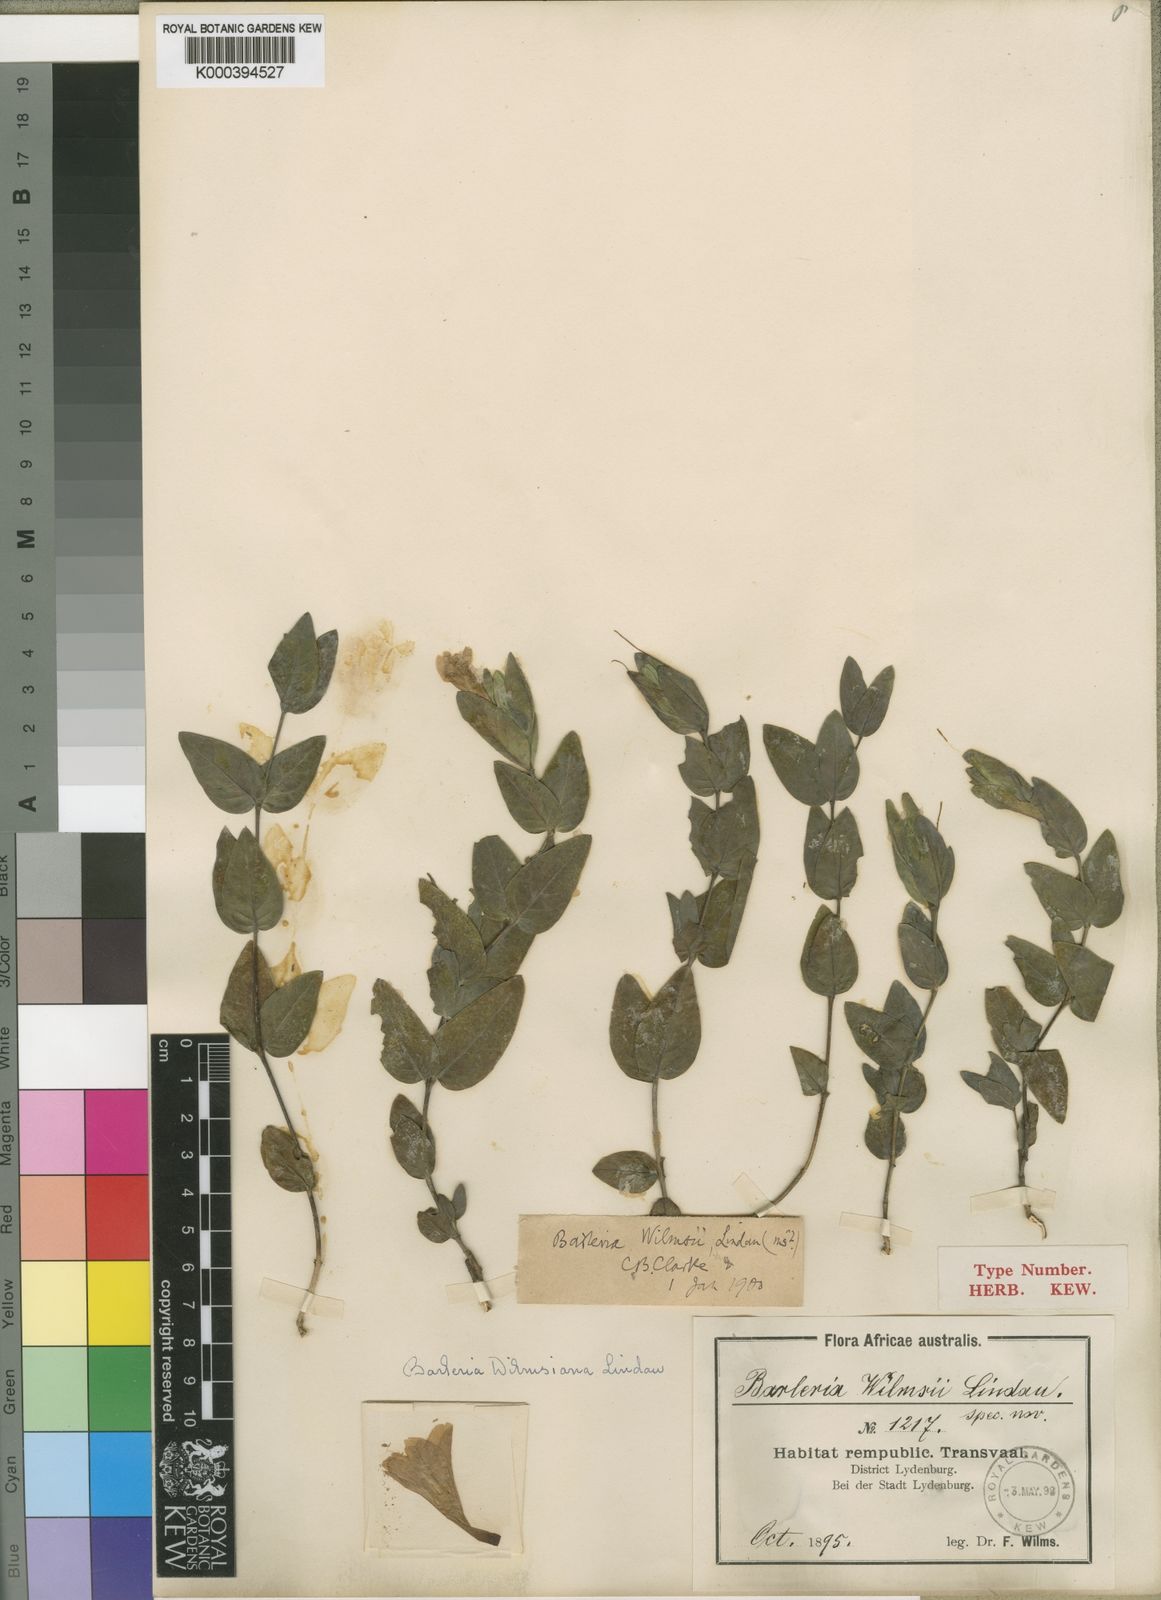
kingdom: Plantae
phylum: Tracheophyta
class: Magnoliopsida
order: Lamiales
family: Acanthaceae
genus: Barleria
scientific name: Barleria wilmsiana
